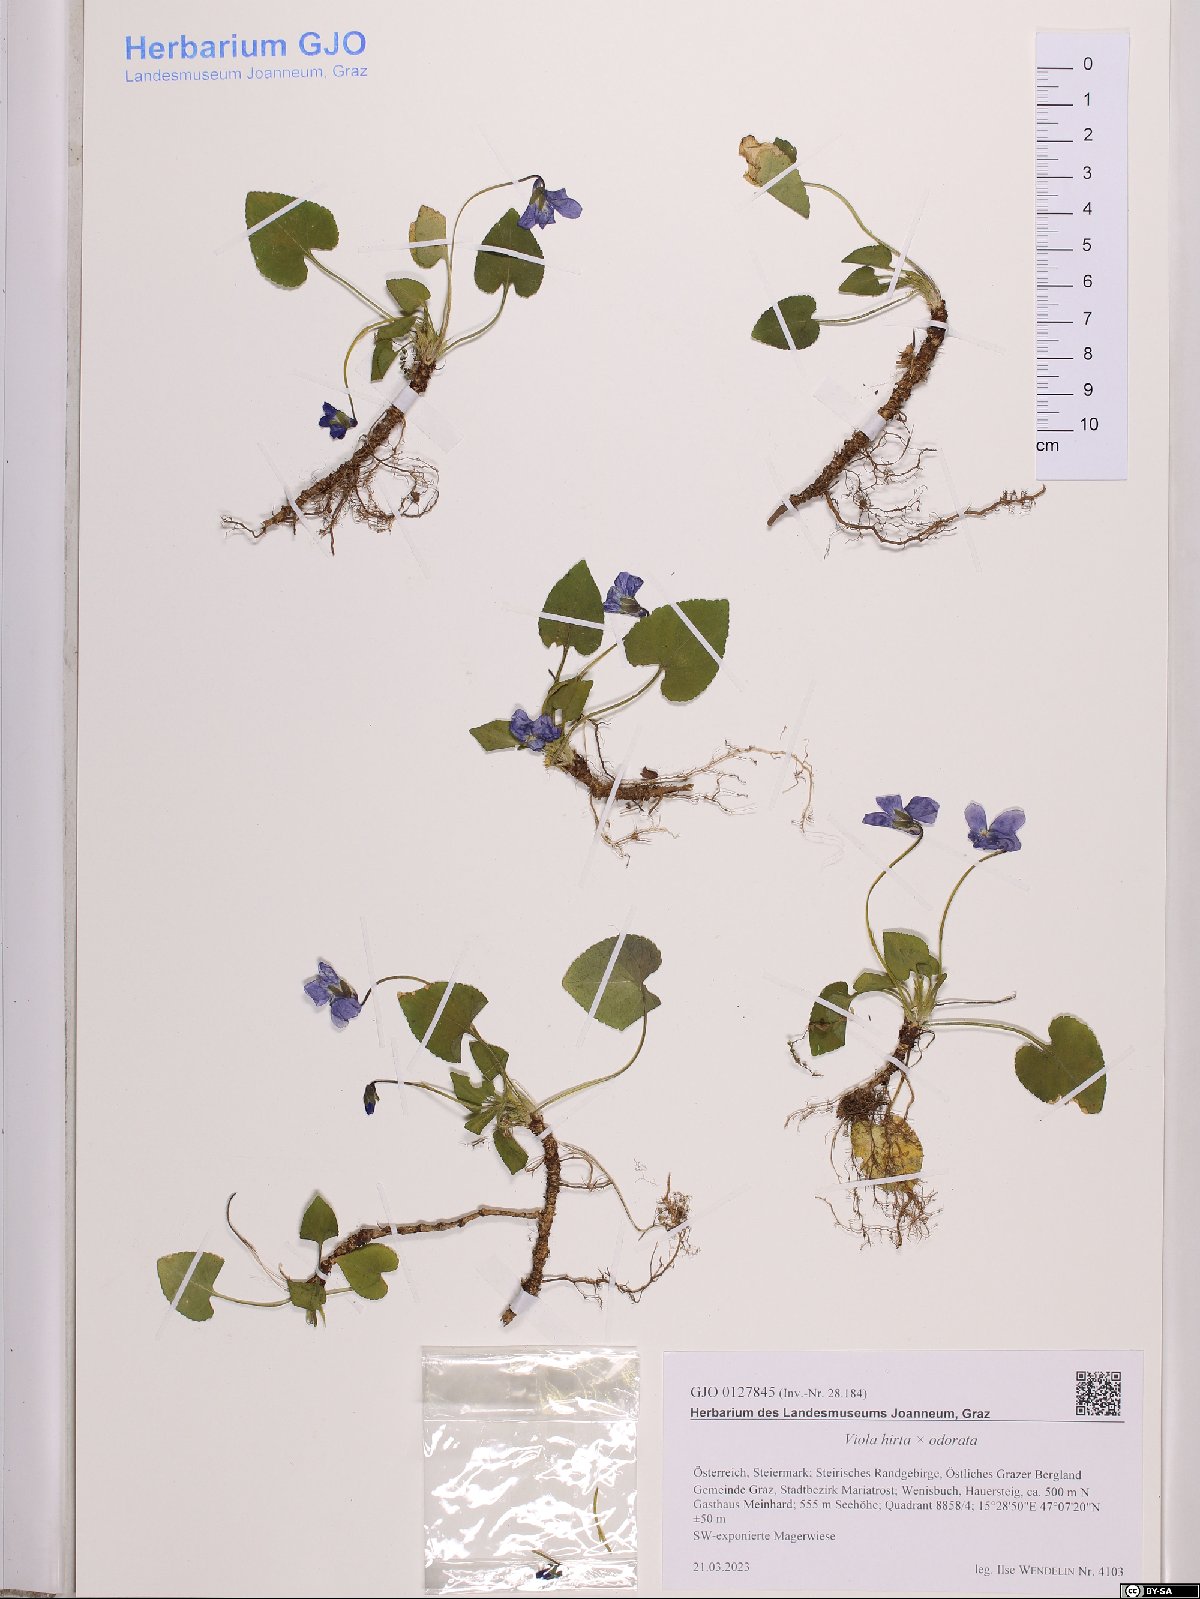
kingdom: Plantae
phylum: Tracheophyta
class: Magnoliopsida
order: Malpighiales
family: Violaceae
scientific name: Violaceae
